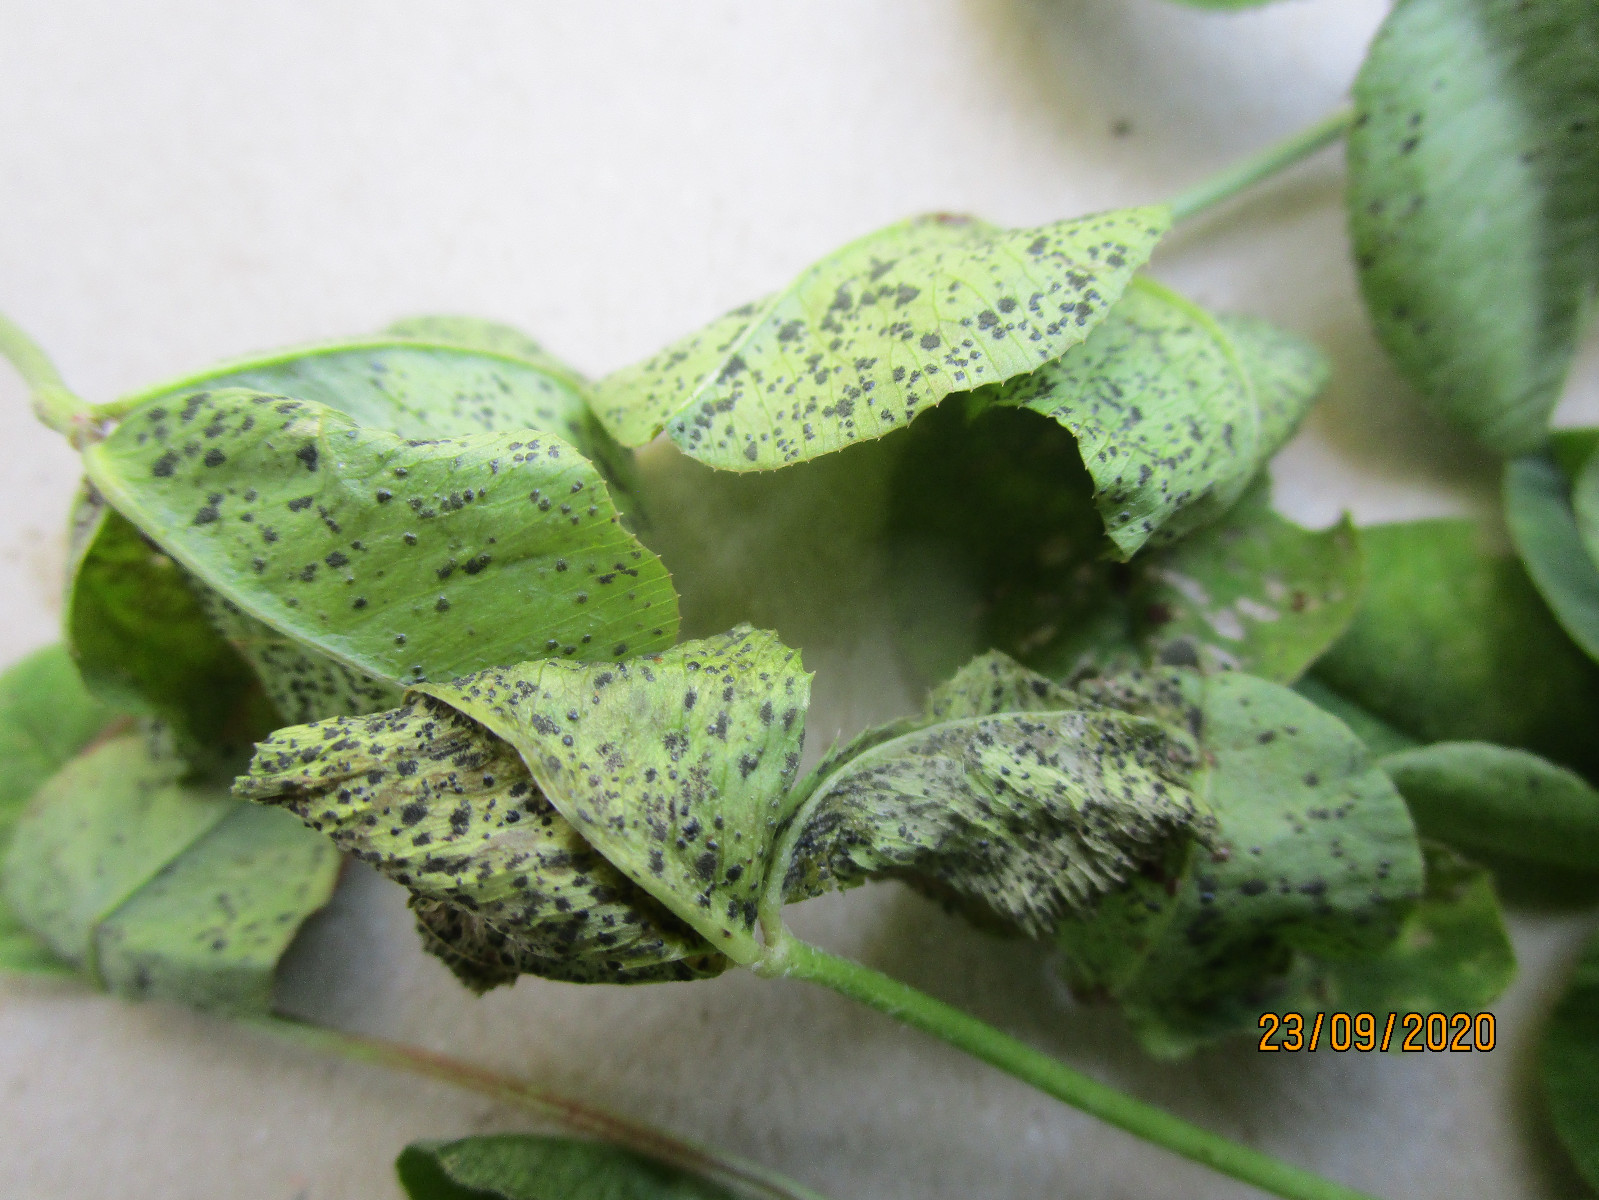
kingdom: Fungi
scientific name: Fungi
